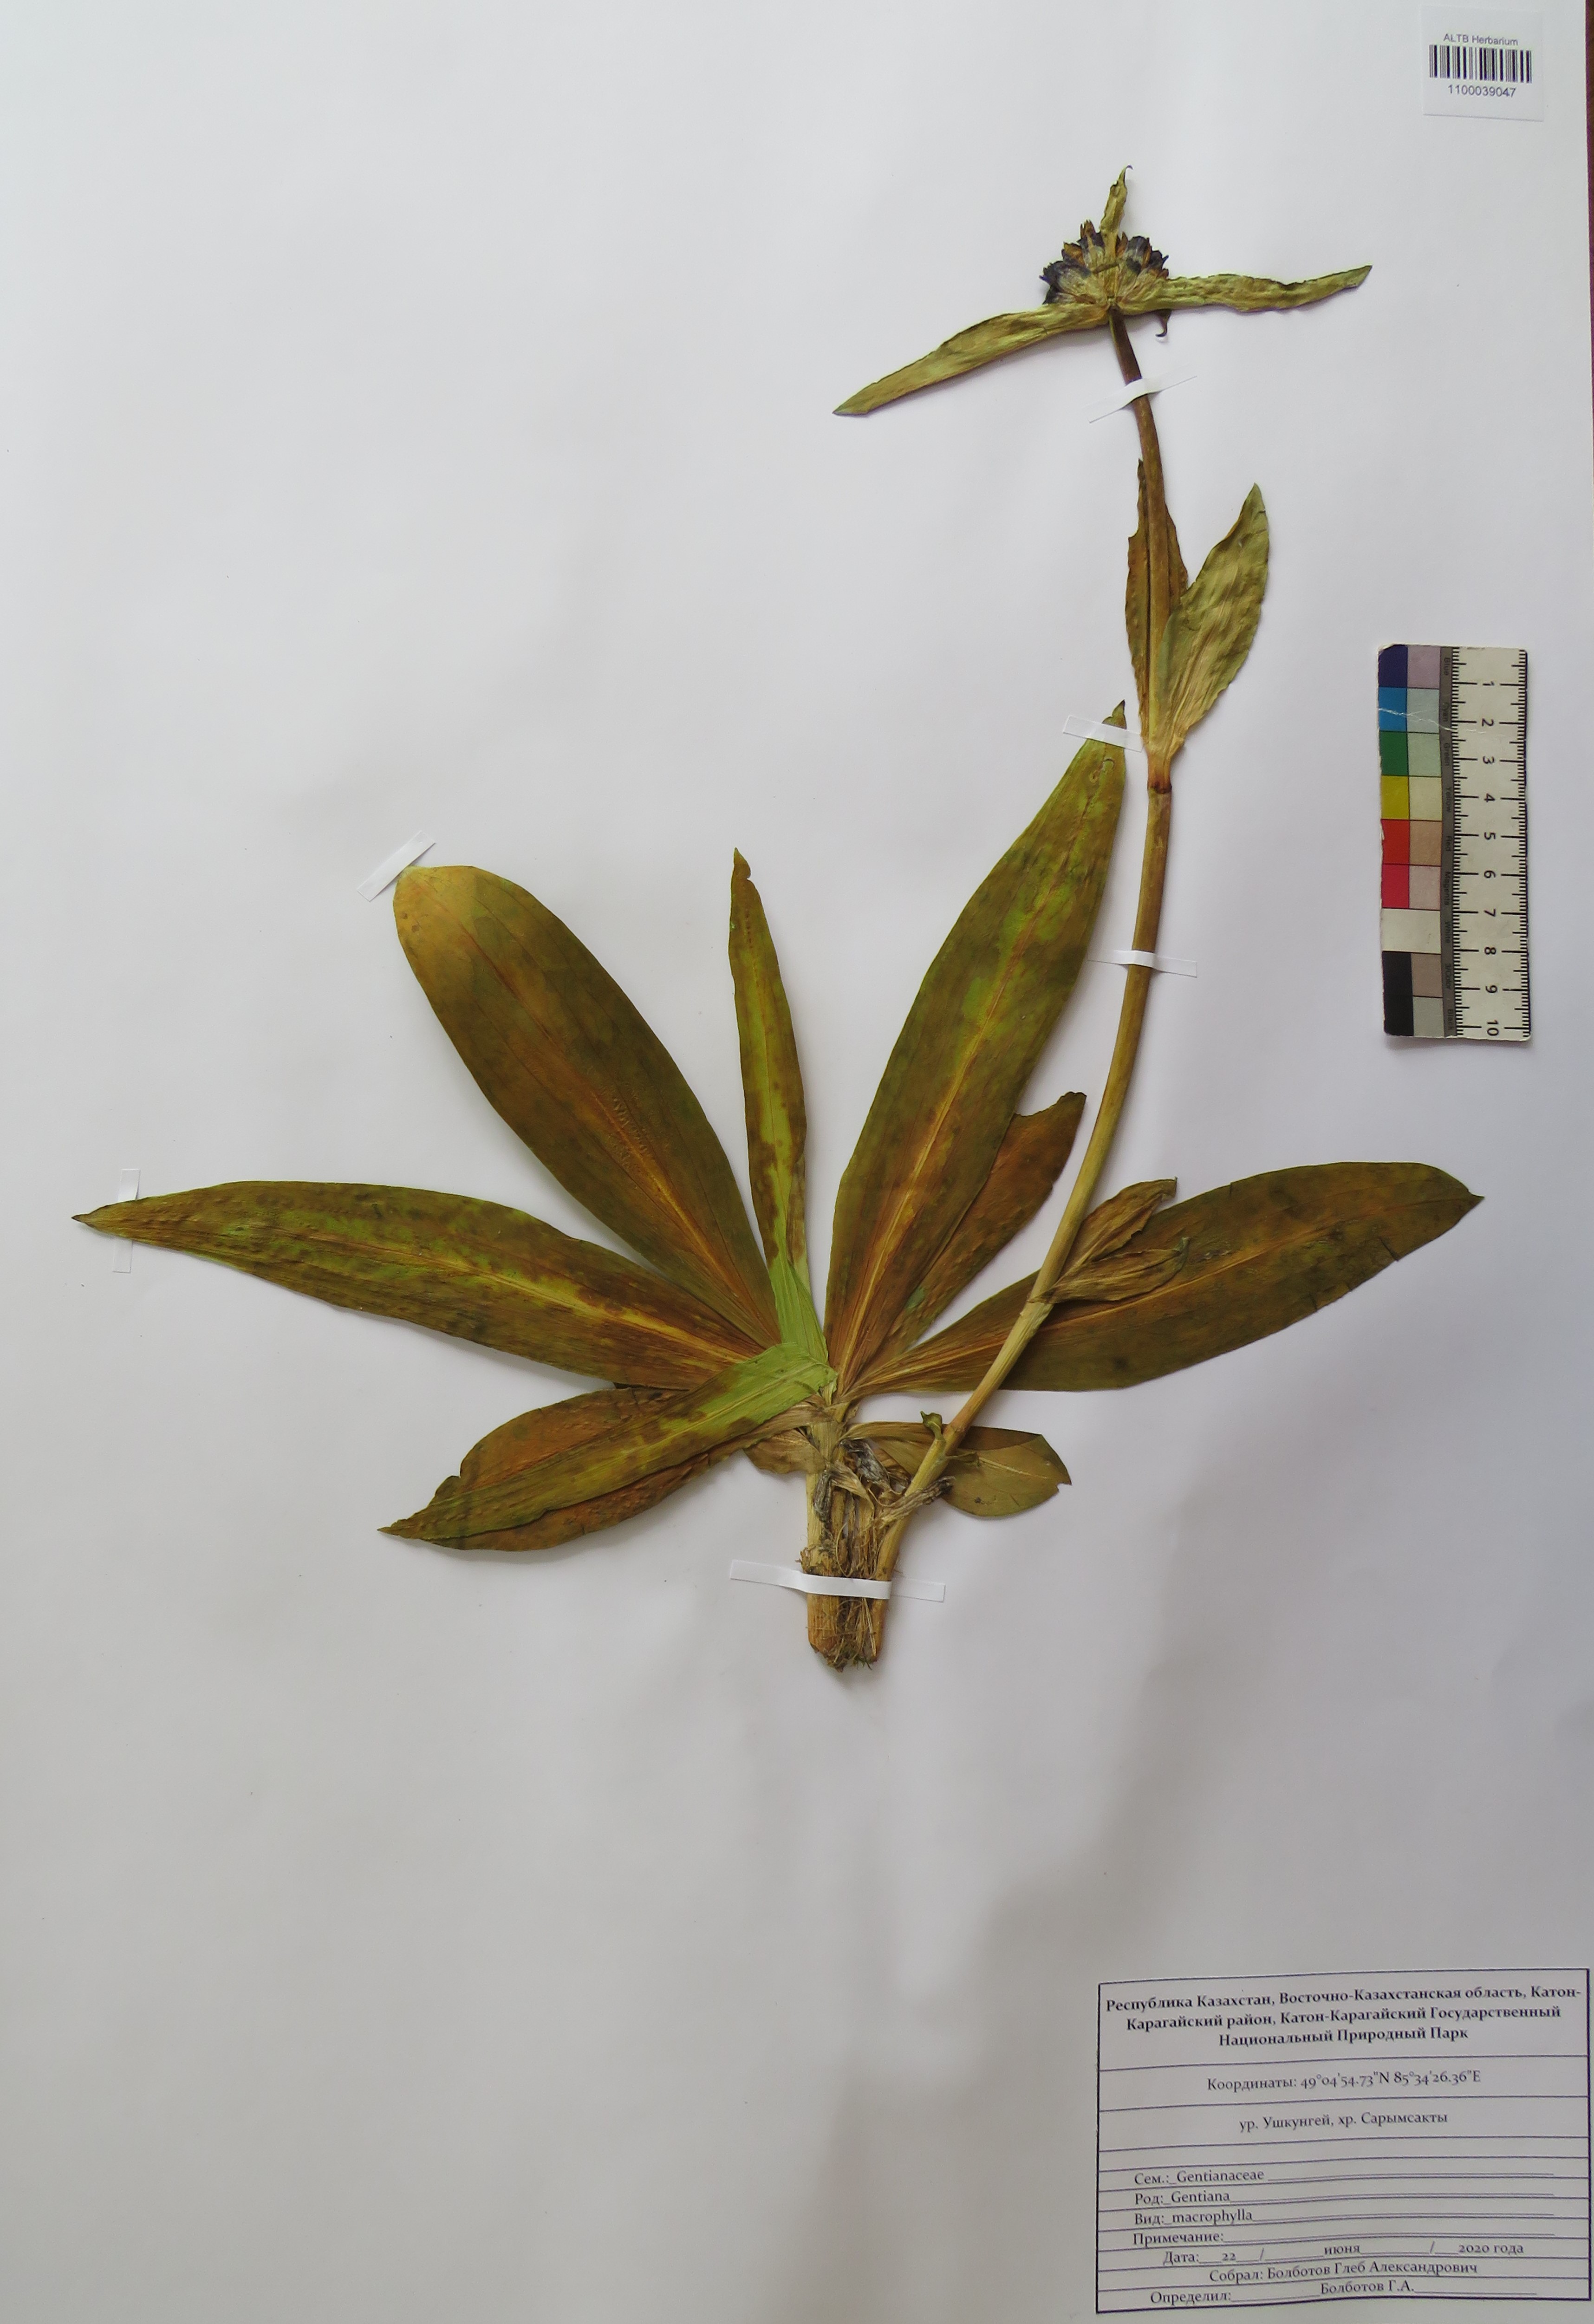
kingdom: Plantae
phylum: Tracheophyta
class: Magnoliopsida
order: Gentianales
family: Gentianaceae
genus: Gentiana
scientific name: Gentiana macrophylla
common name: Large-leaf gentian
